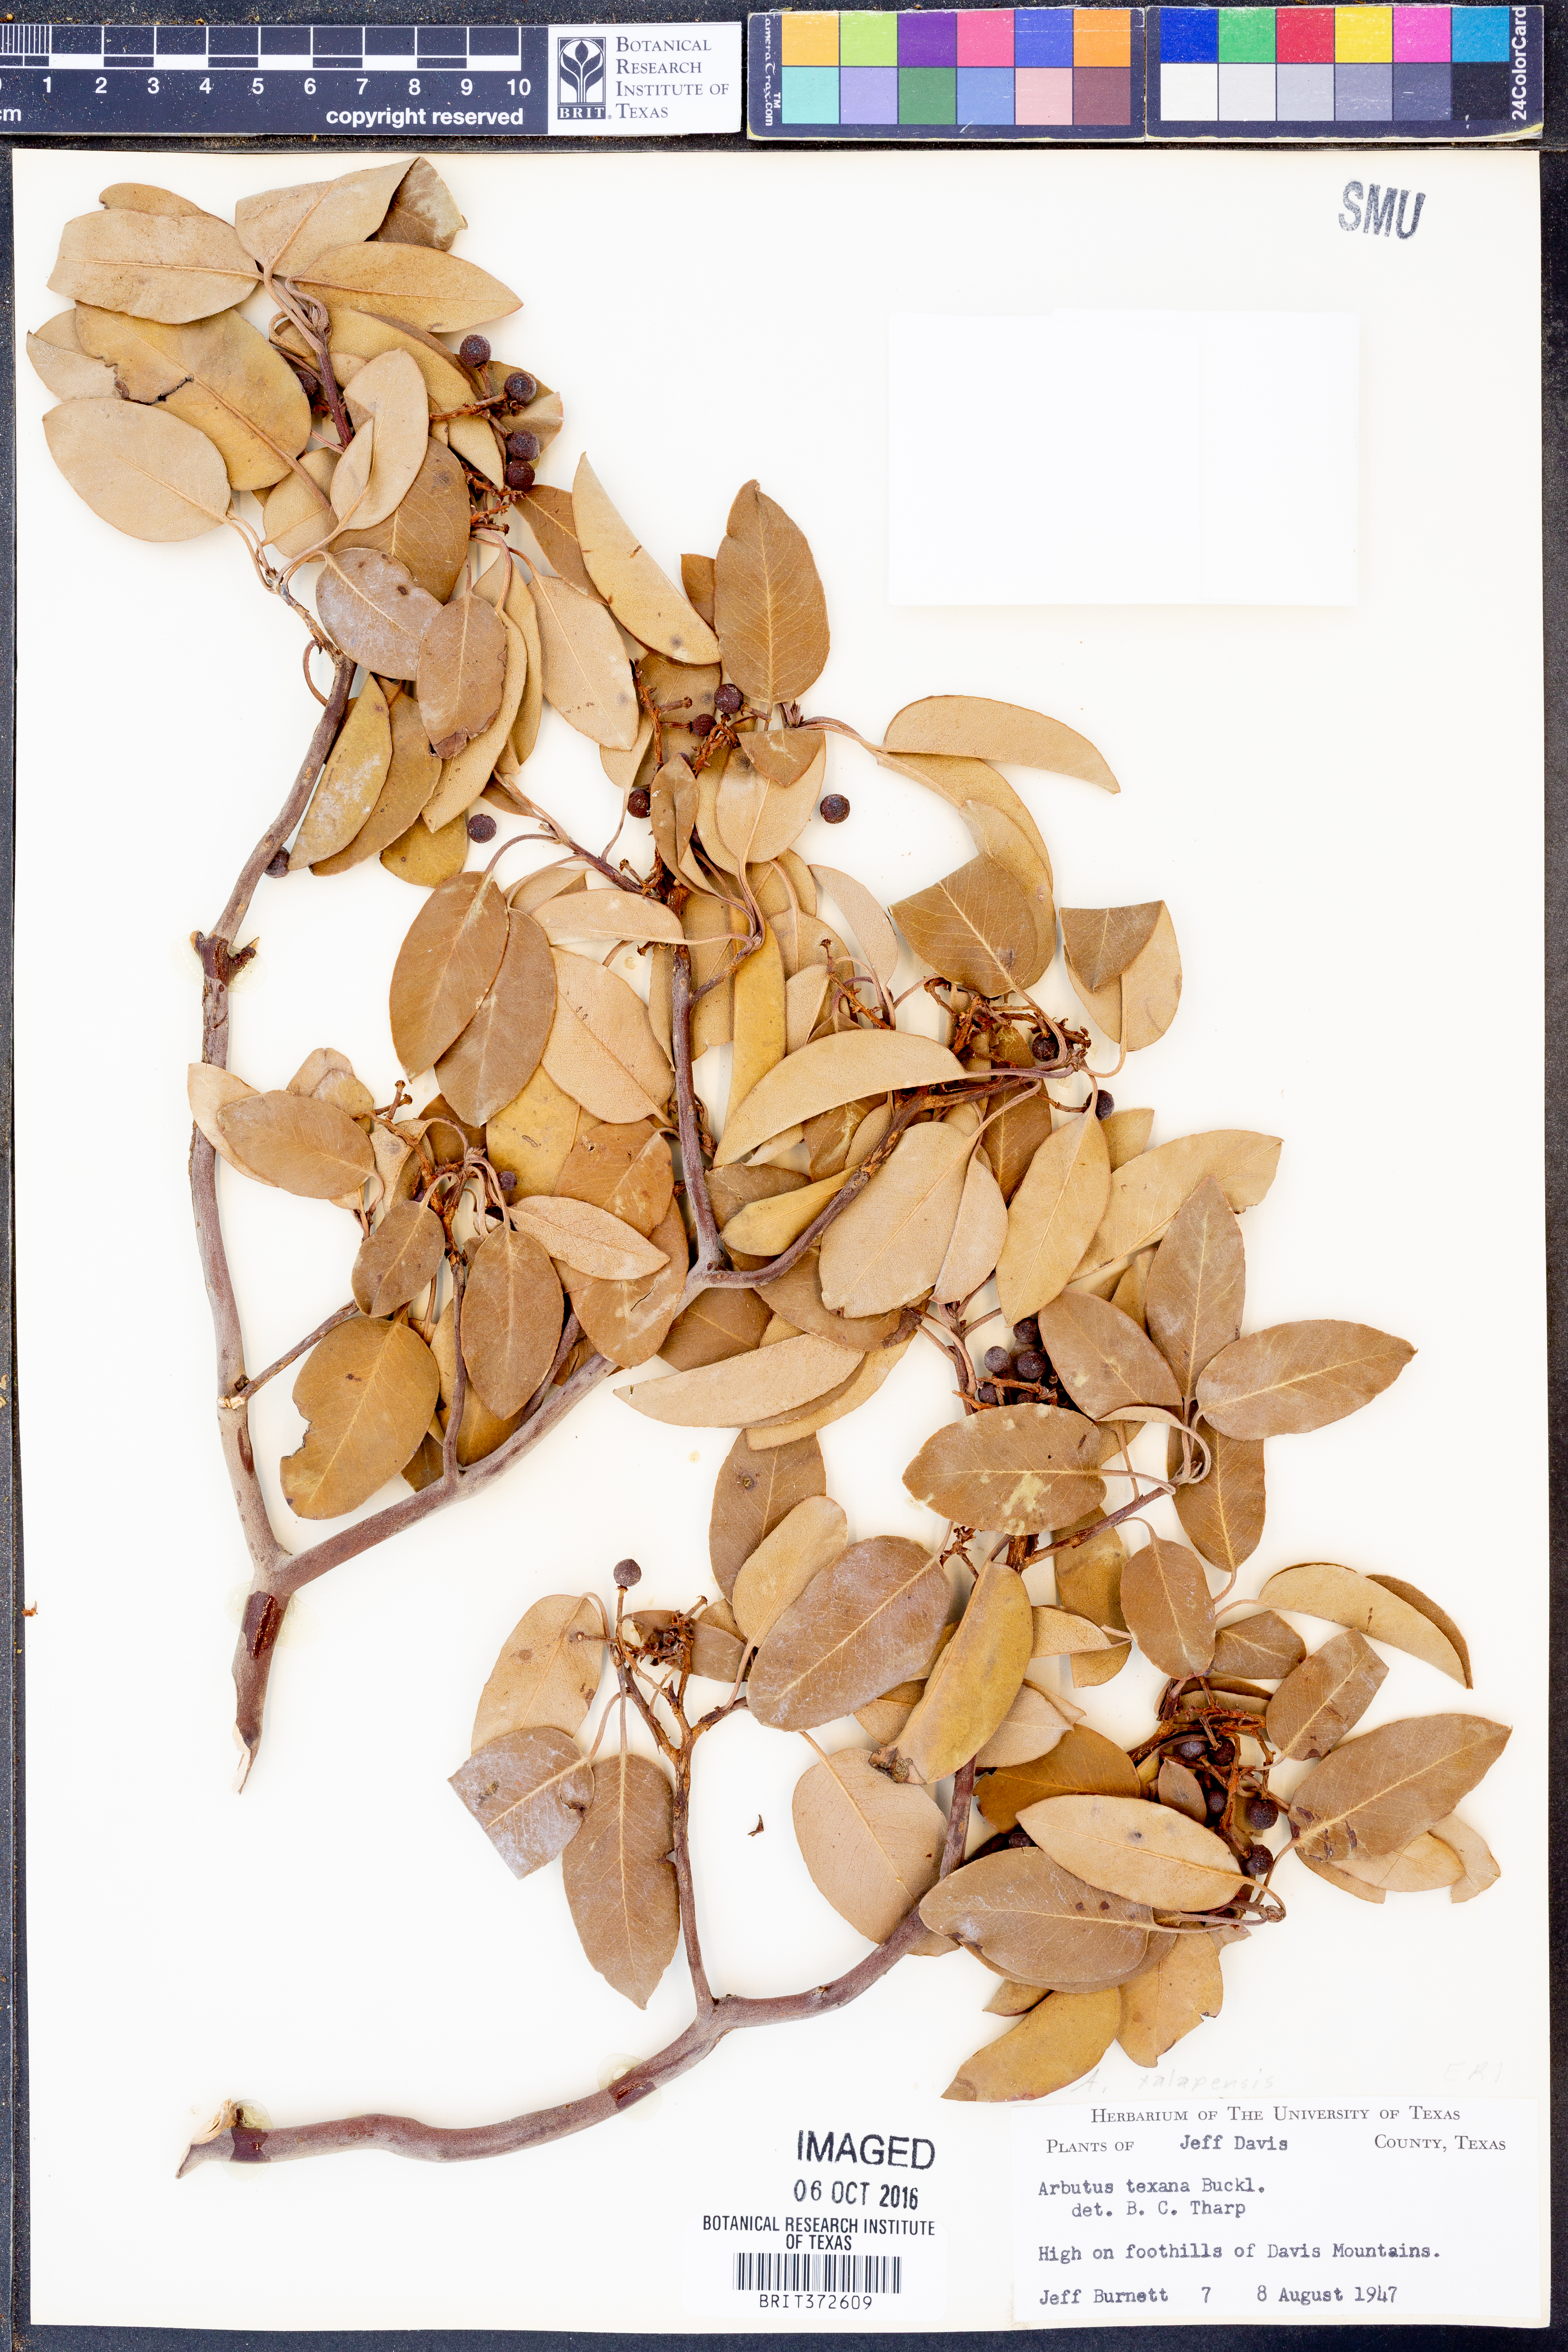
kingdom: Plantae
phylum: Tracheophyta
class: Magnoliopsida
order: Ericales
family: Ericaceae
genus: Arbutus
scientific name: Arbutus xalapensis
